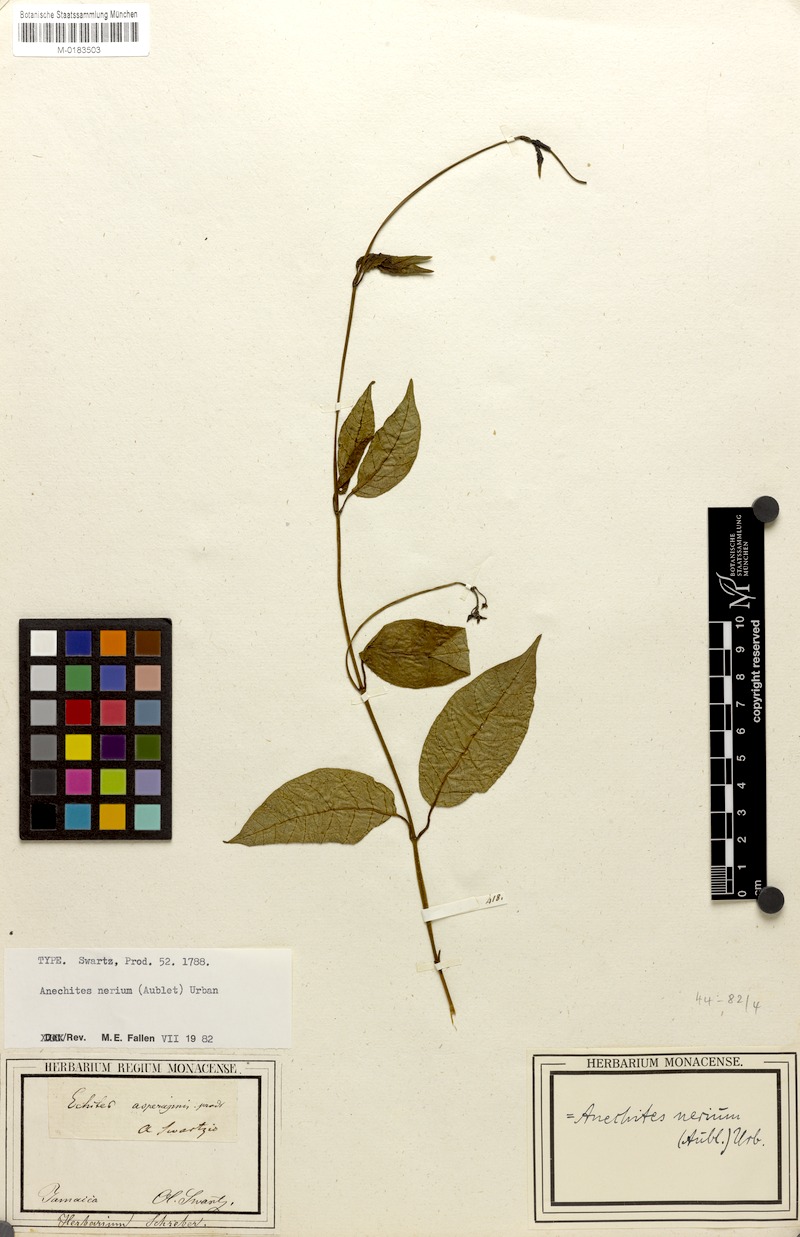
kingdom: Plantae
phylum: Tracheophyta
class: Magnoliopsida
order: Gentianales
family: Apocynaceae
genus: Anechites
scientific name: Anechites nerium
